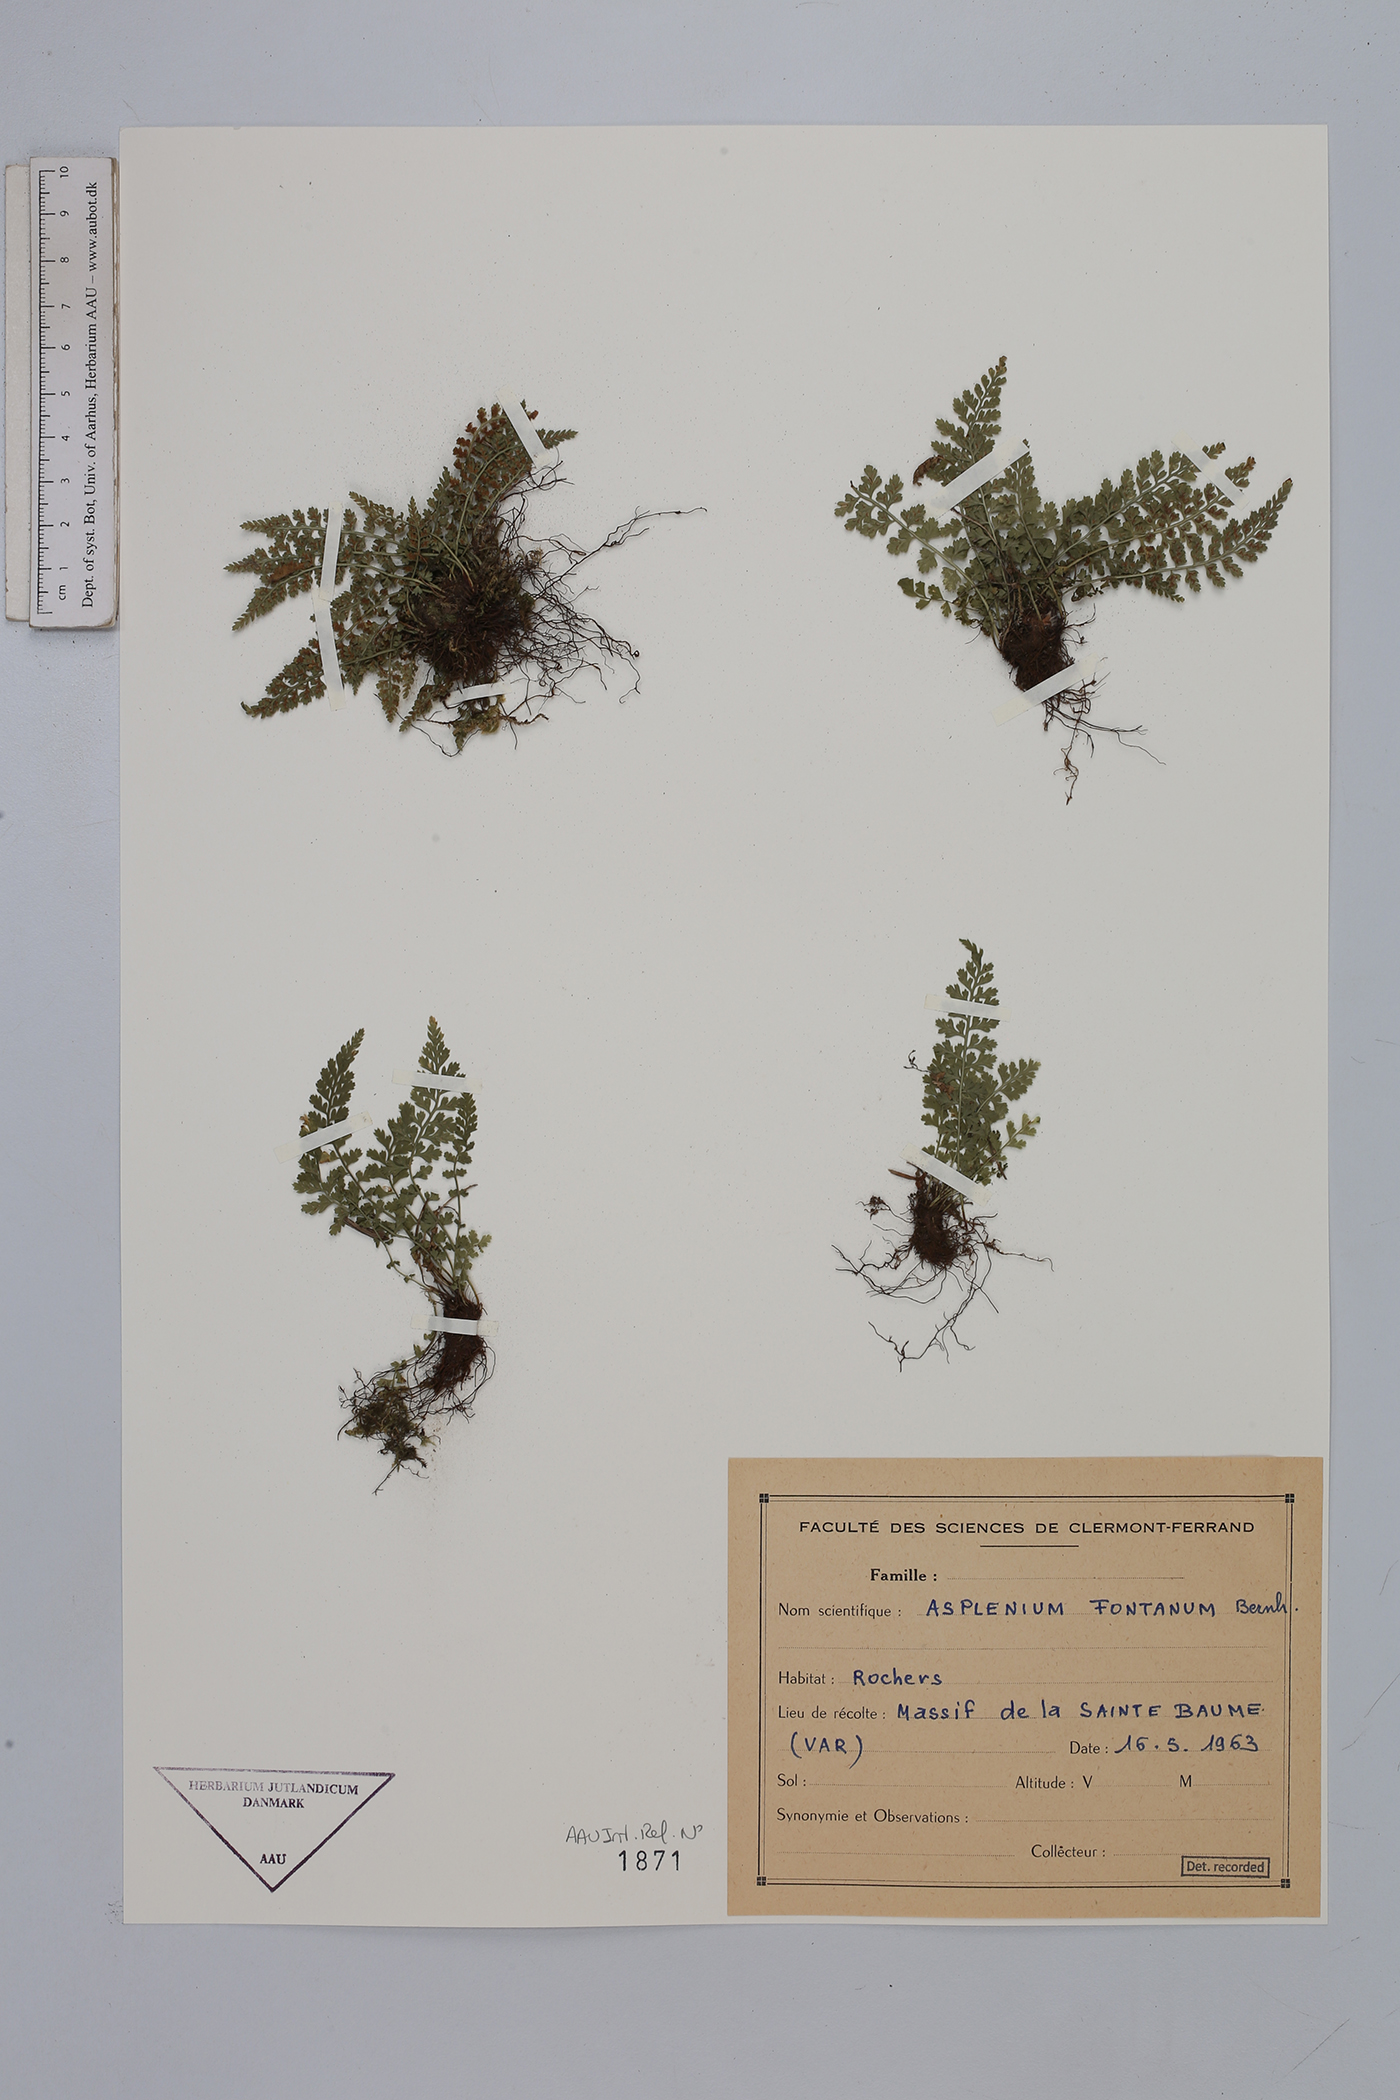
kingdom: Plantae
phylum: Tracheophyta
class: Polypodiopsida
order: Polypodiales
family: Aspleniaceae
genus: Asplenium
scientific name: Asplenium fontanum
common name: Fountain spleenwort
